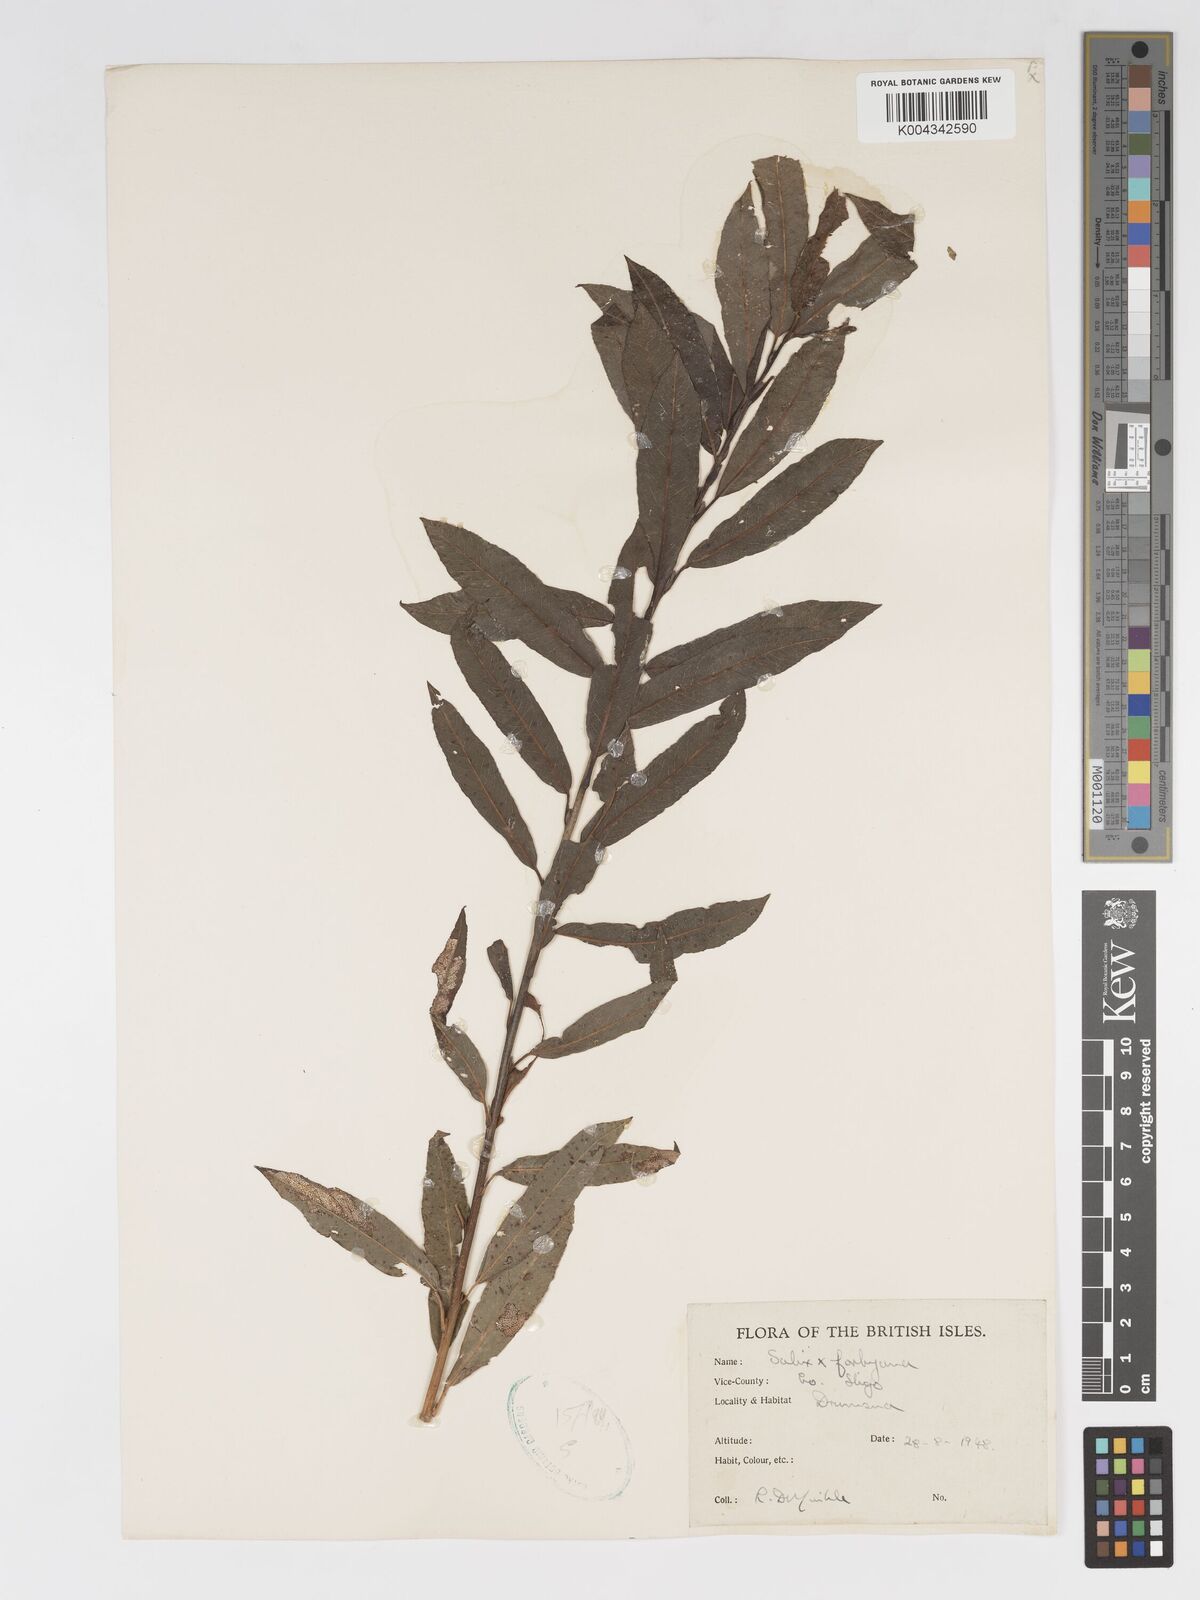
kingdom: Plantae
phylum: Tracheophyta
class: Magnoliopsida
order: Malpighiales
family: Salicaceae
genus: Salix
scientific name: Salix cinerea
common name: Common sallow
